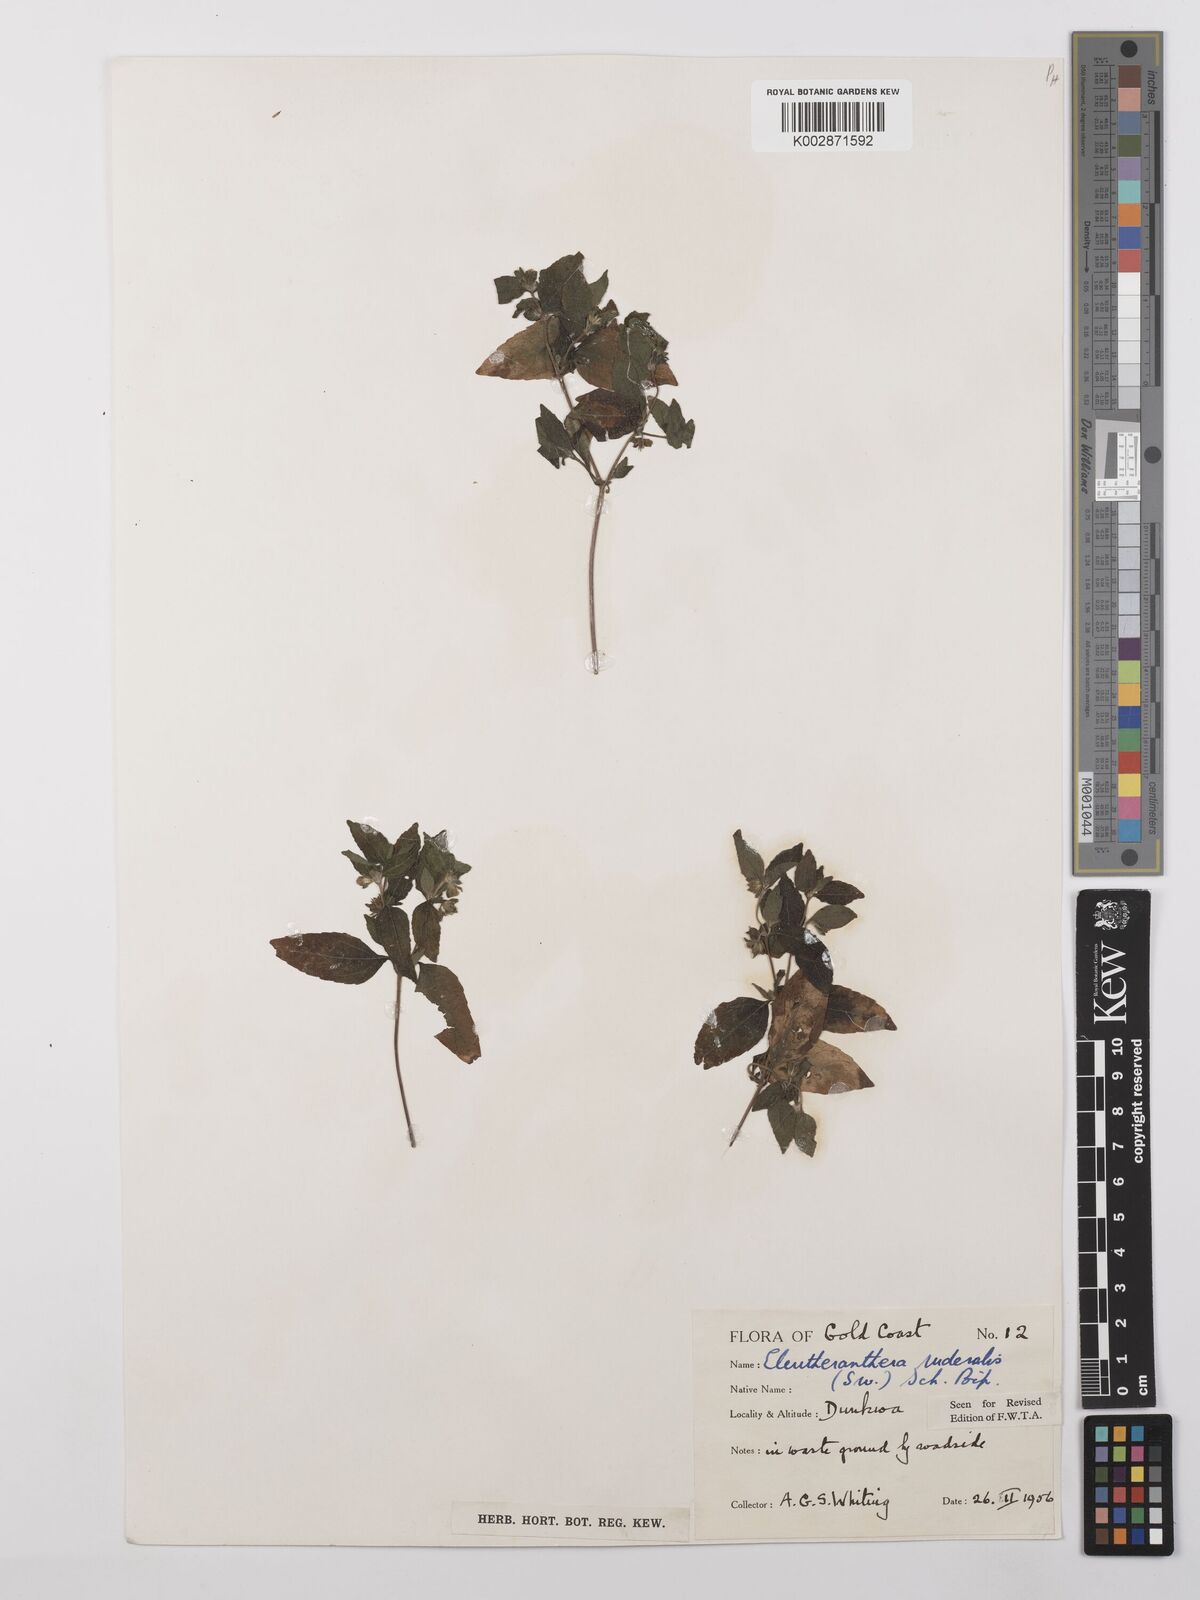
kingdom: Plantae
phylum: Tracheophyta
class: Magnoliopsida
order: Asterales
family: Asteraceae
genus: Eleutheranthera
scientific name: Eleutheranthera ruderalis
